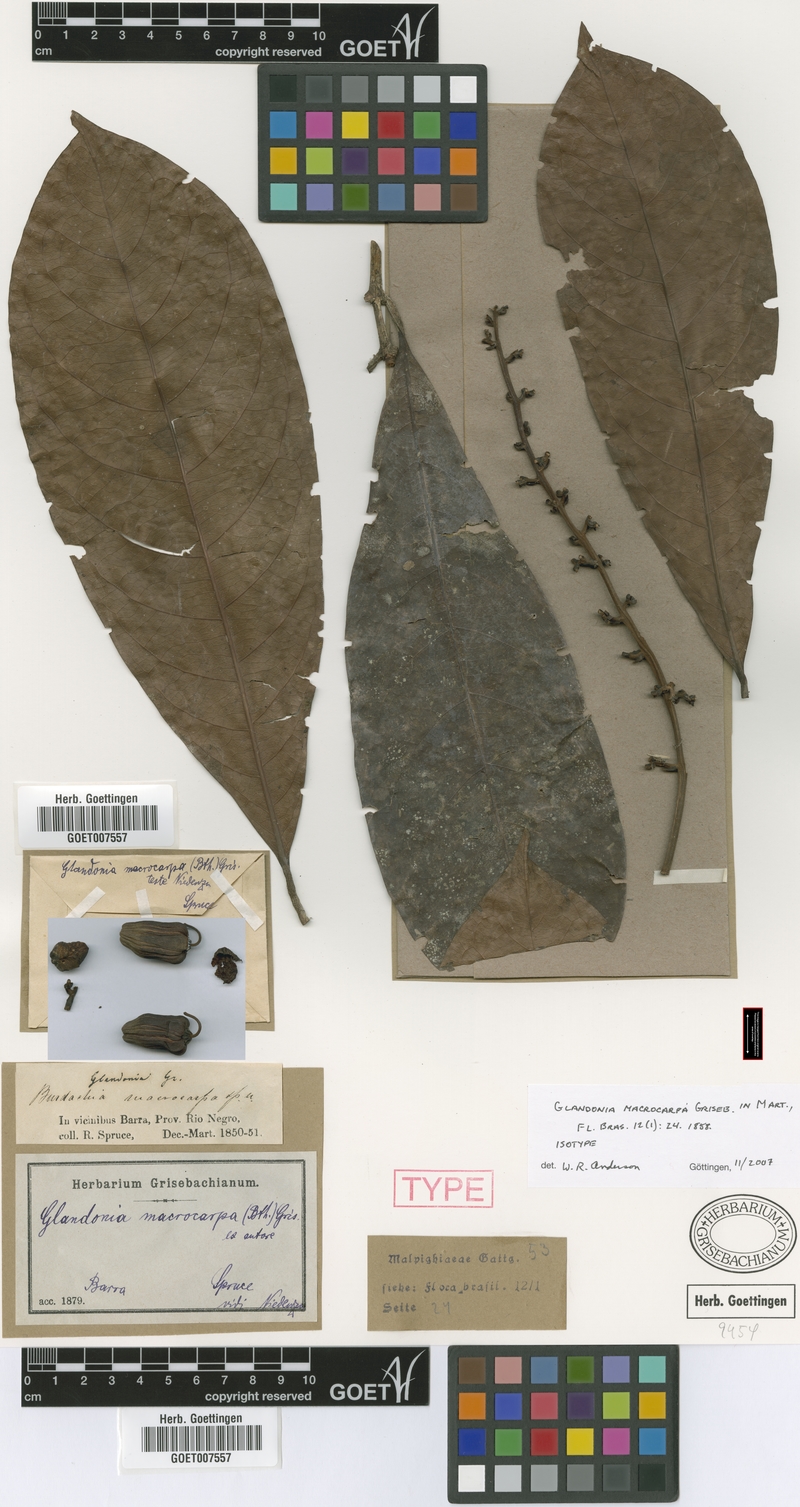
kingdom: Plantae
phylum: Tracheophyta
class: Magnoliopsida
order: Malpighiales
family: Malpighiaceae
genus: Glandonia
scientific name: Glandonia macrocarpa
